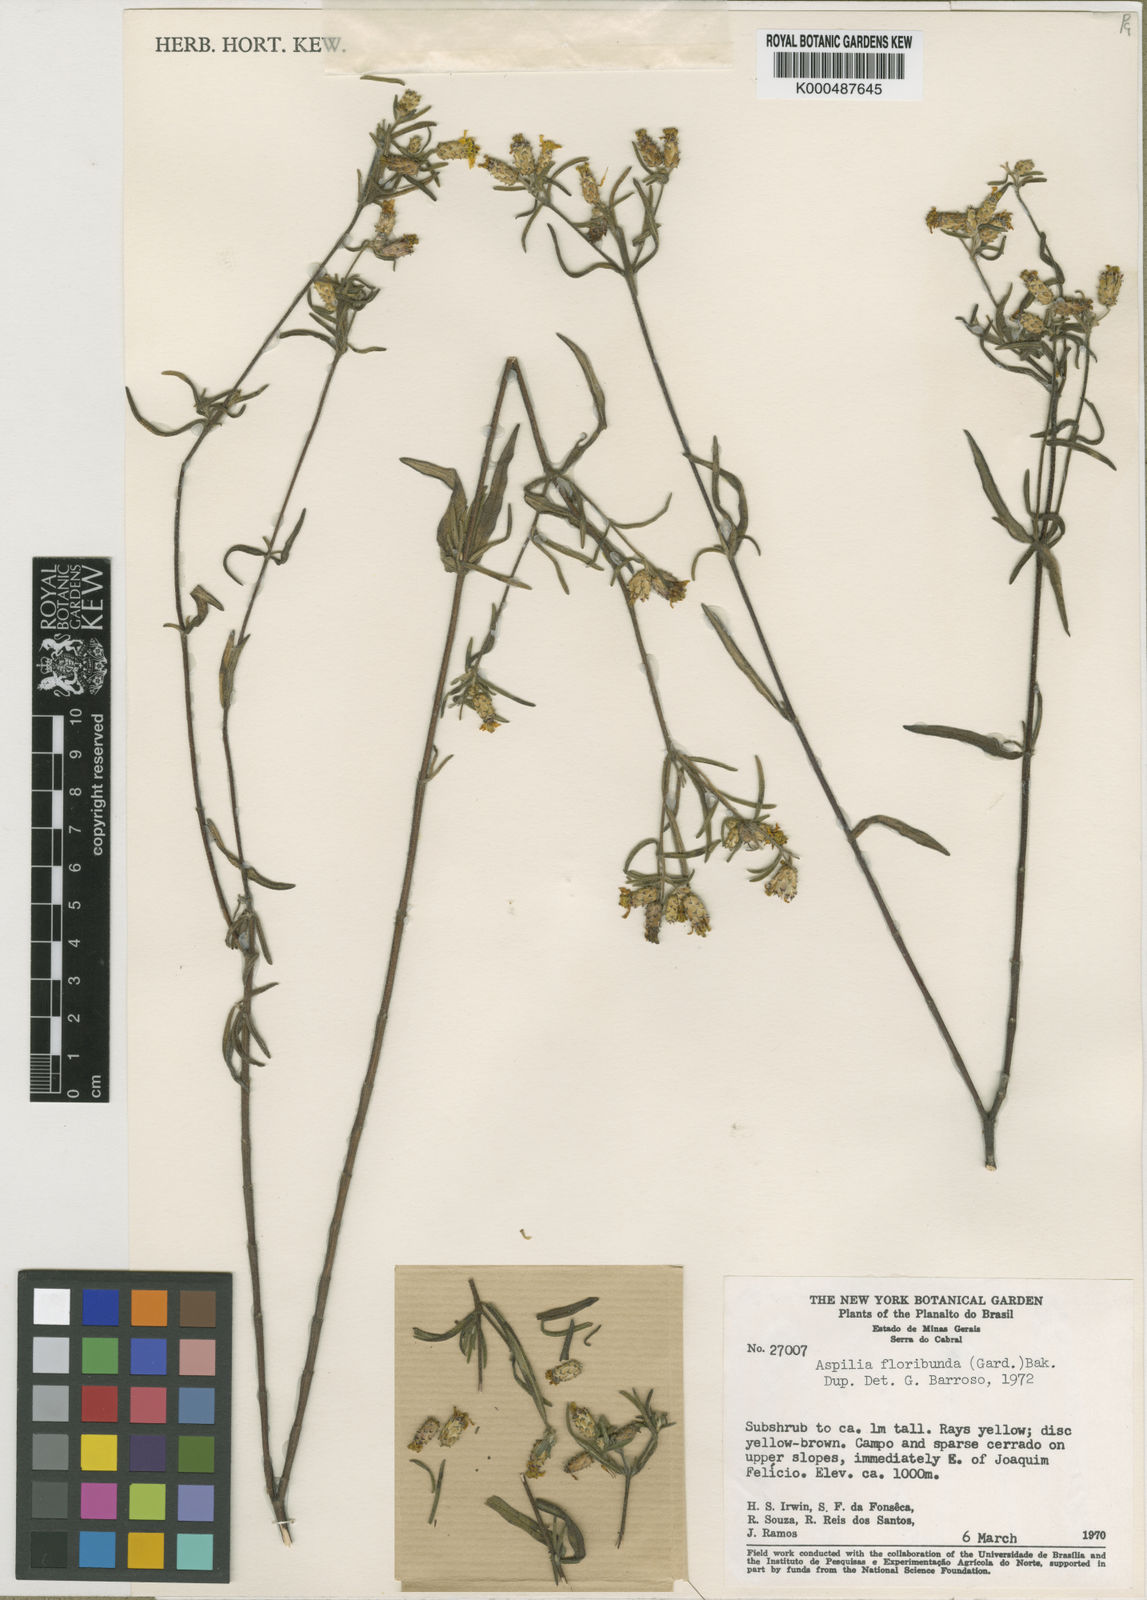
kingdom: Plantae
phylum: Tracheophyta
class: Magnoliopsida
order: Asterales
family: Asteraceae
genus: Wedelia
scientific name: Wedelia cylindrocephala
